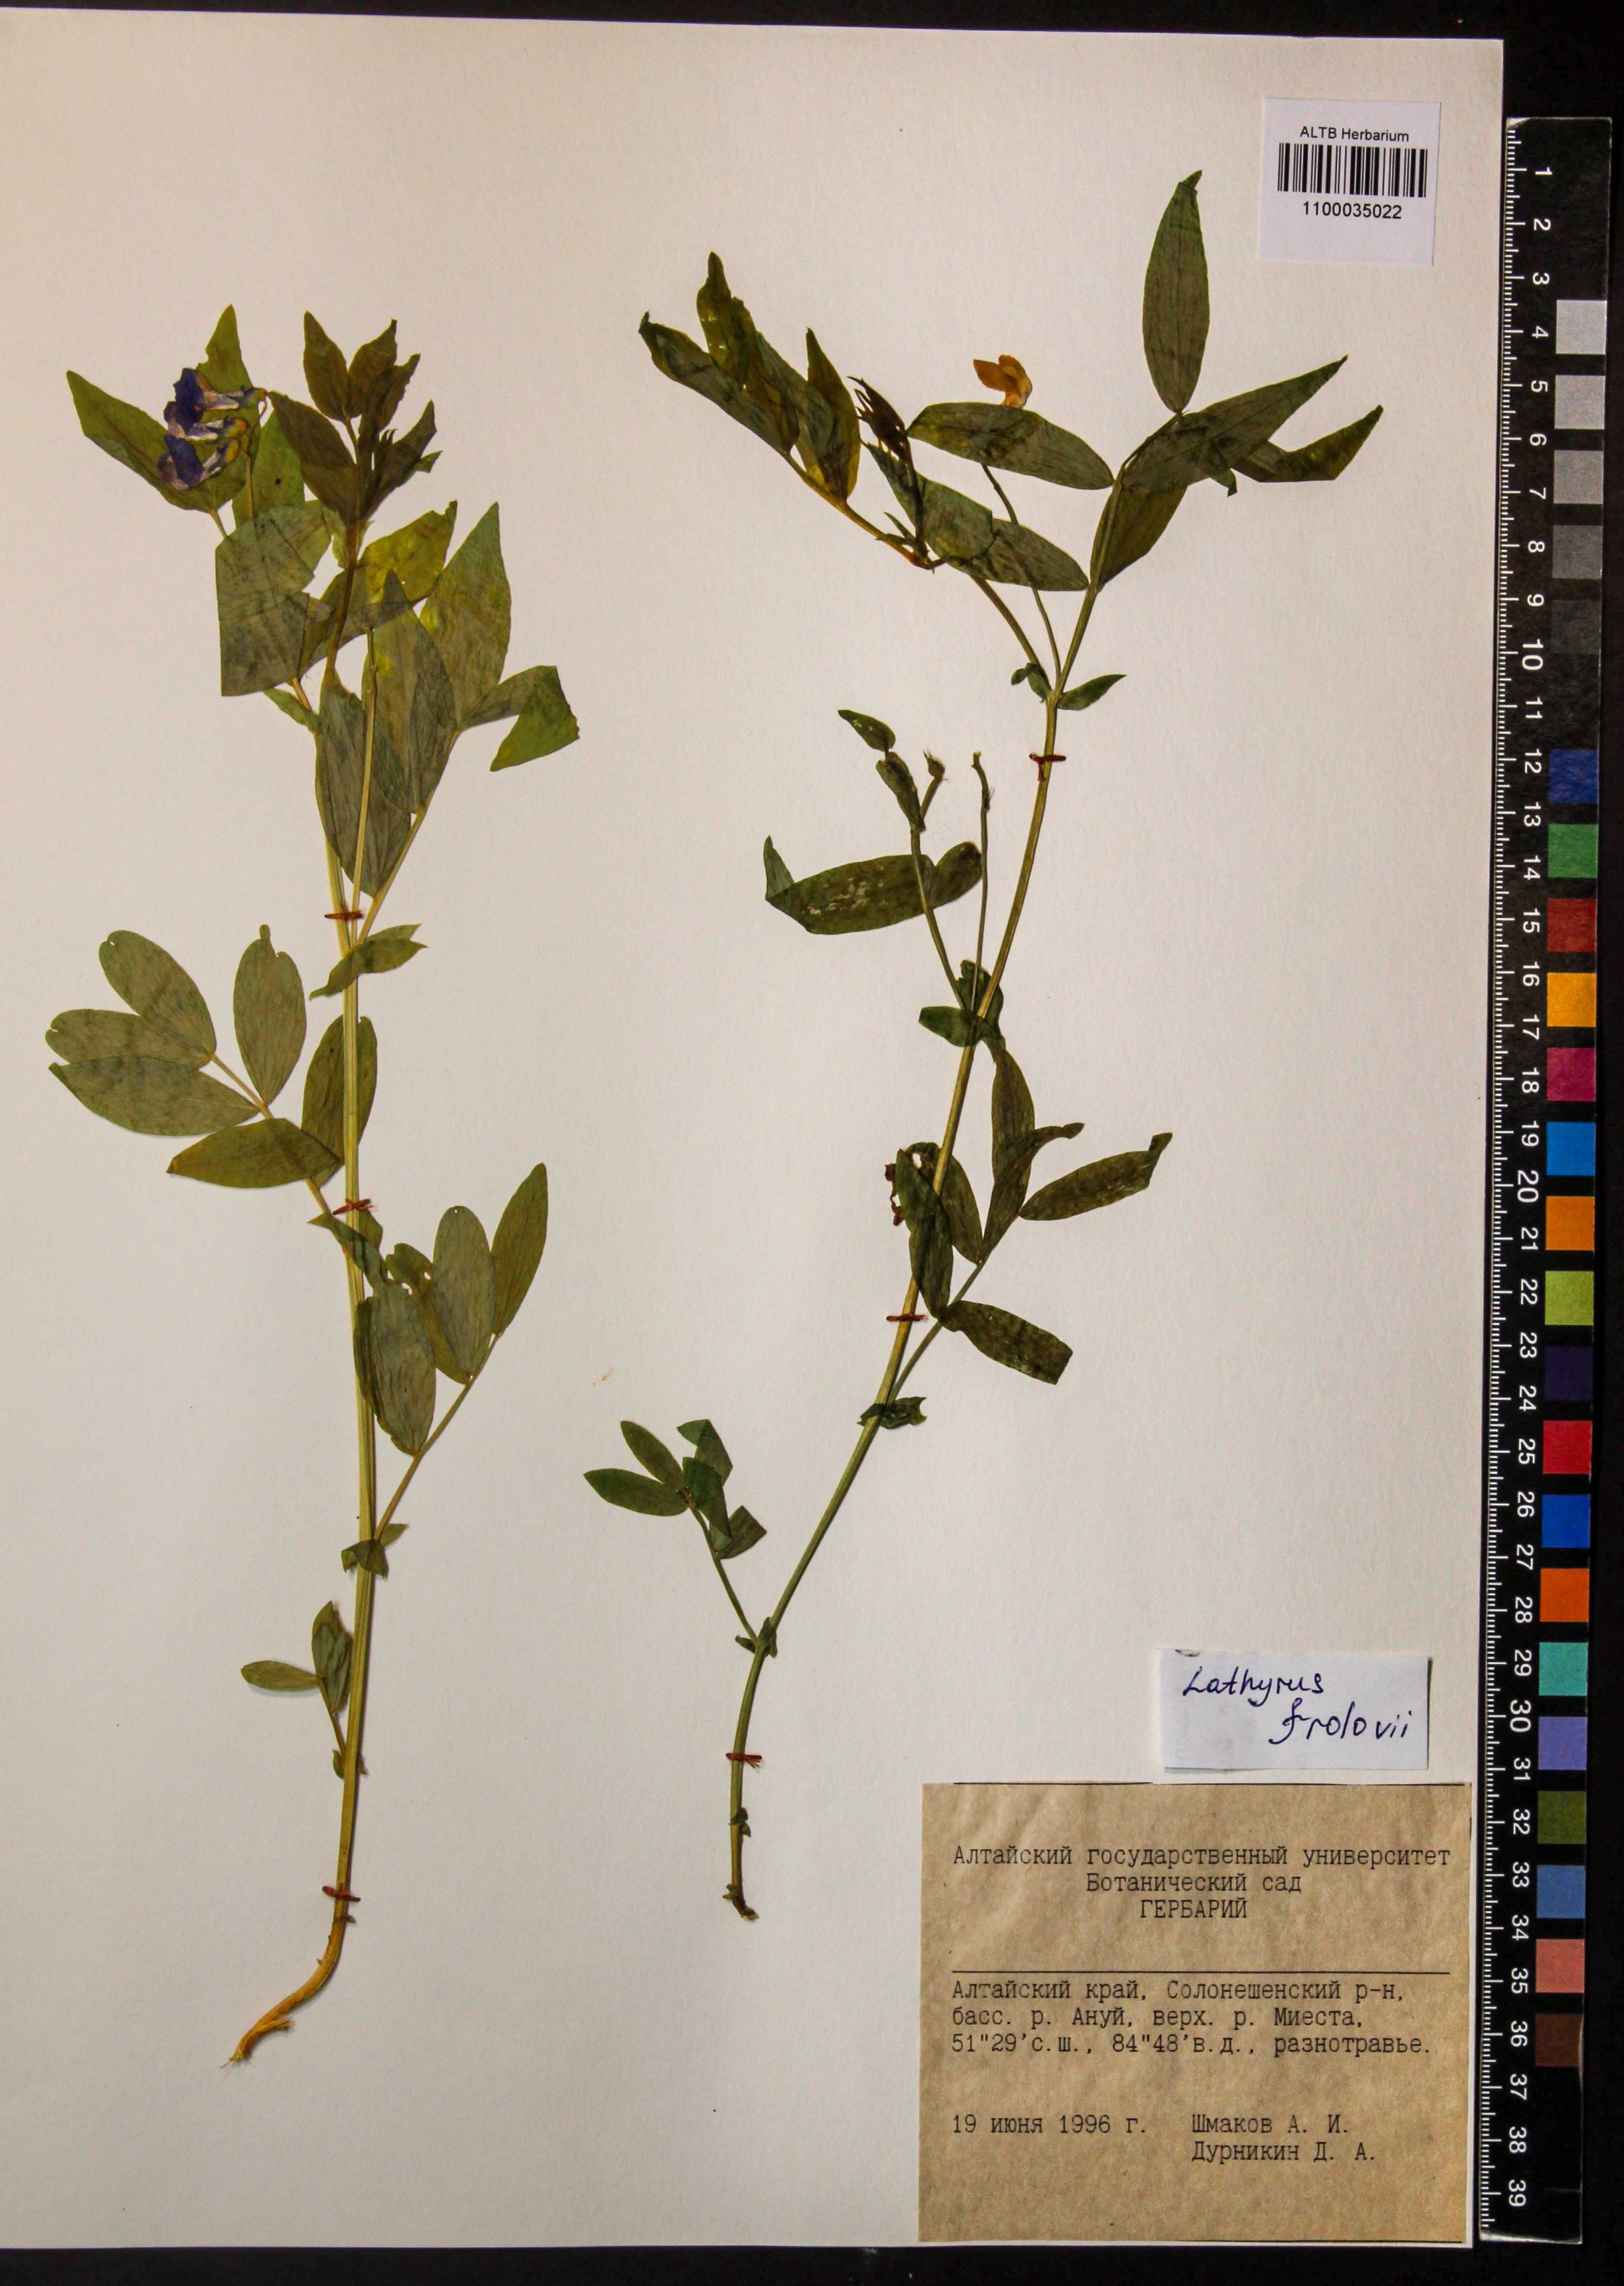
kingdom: Plantae
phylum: Tracheophyta
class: Magnoliopsida
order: Fabales
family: Fabaceae
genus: Lathyrus
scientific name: Lathyrus frolovii
